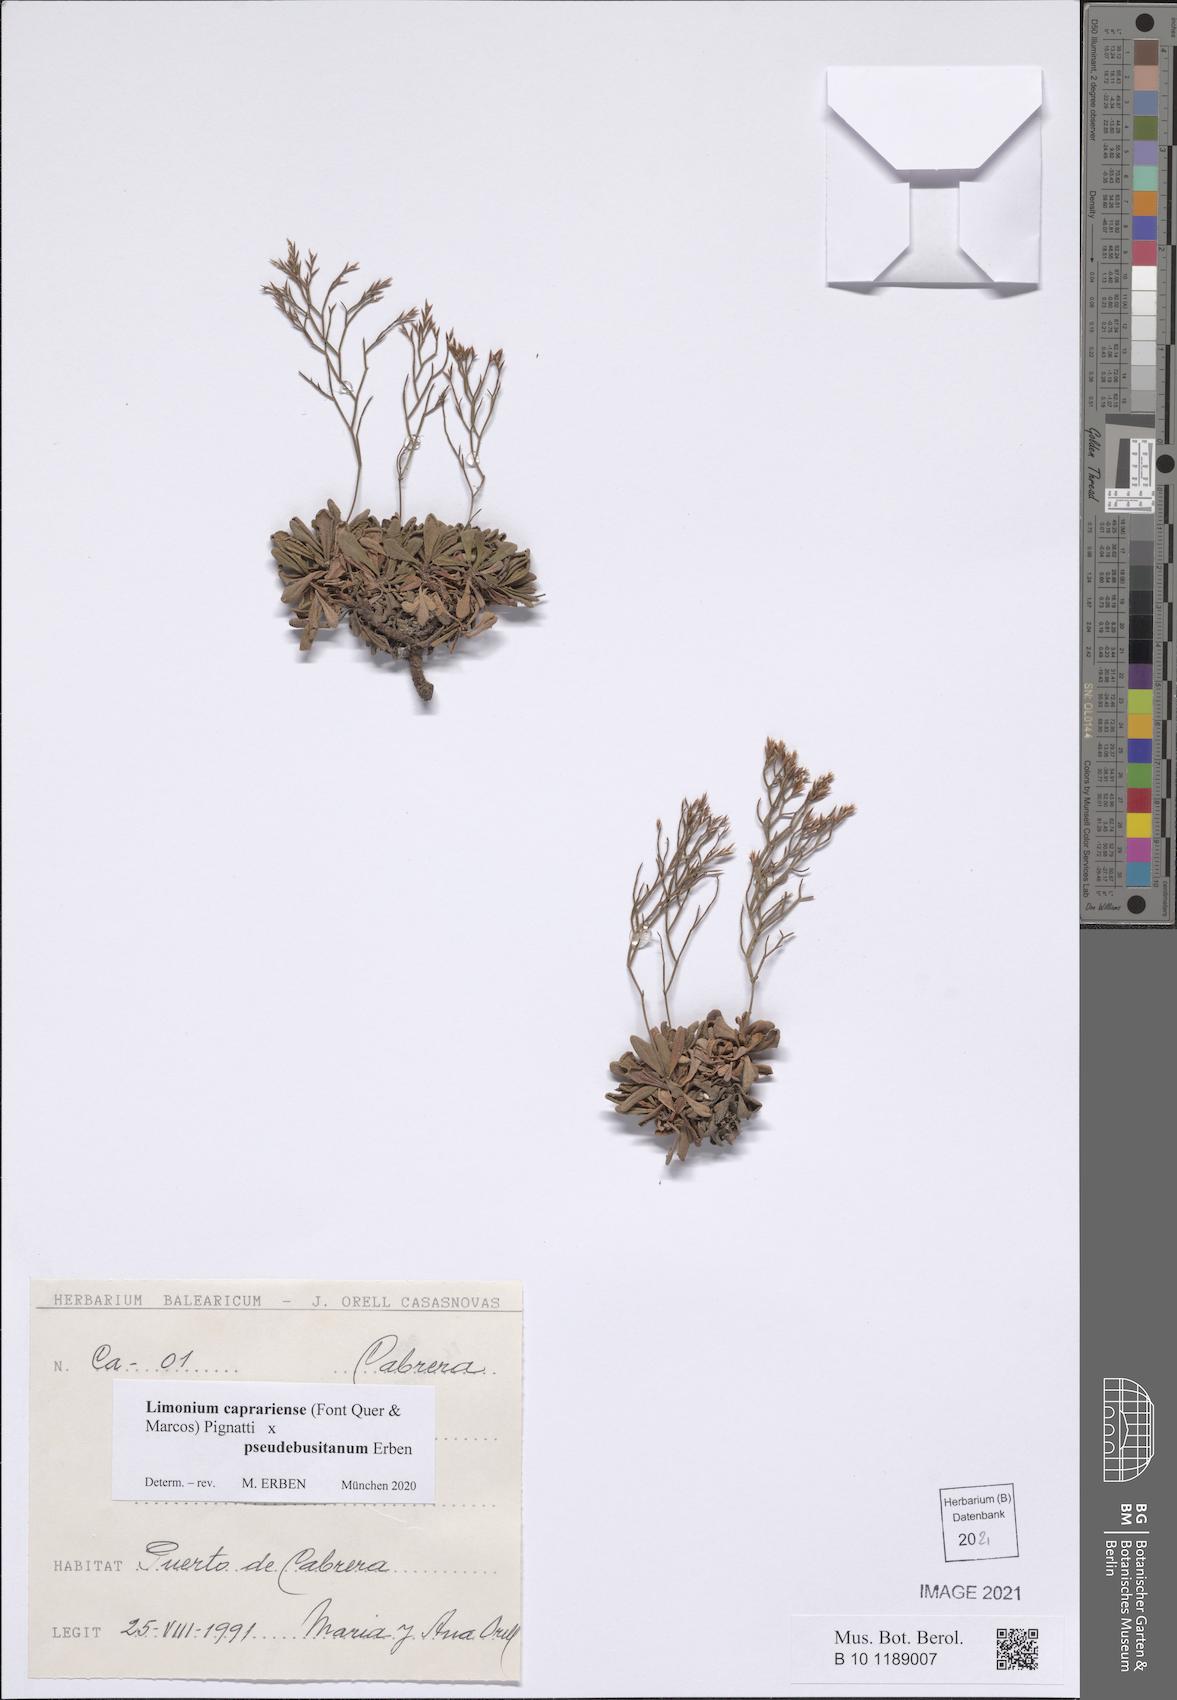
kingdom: Plantae
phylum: Tracheophyta
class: Magnoliopsida
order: Caryophyllales
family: Plumbaginaceae
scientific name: Plumbaginaceae
